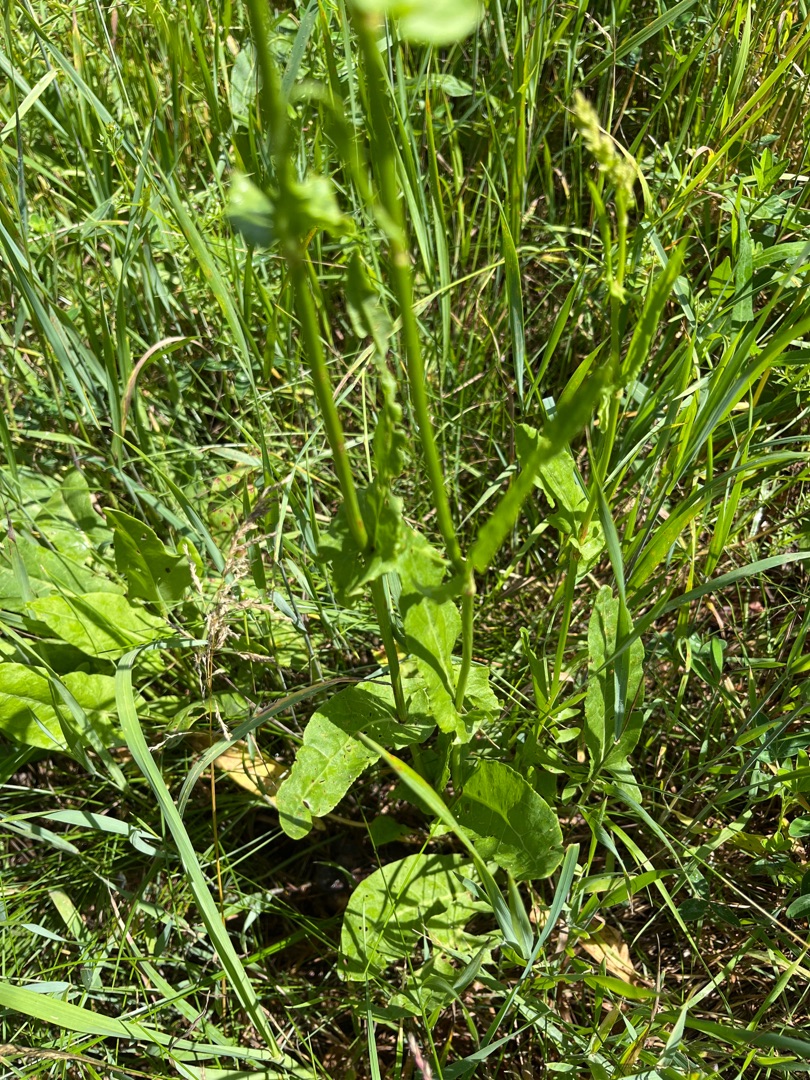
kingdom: Plantae
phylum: Tracheophyta
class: Magnoliopsida
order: Caryophyllales
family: Polygonaceae
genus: Rumex
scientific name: Rumex thyrsiflorus
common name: Dusk-syre
